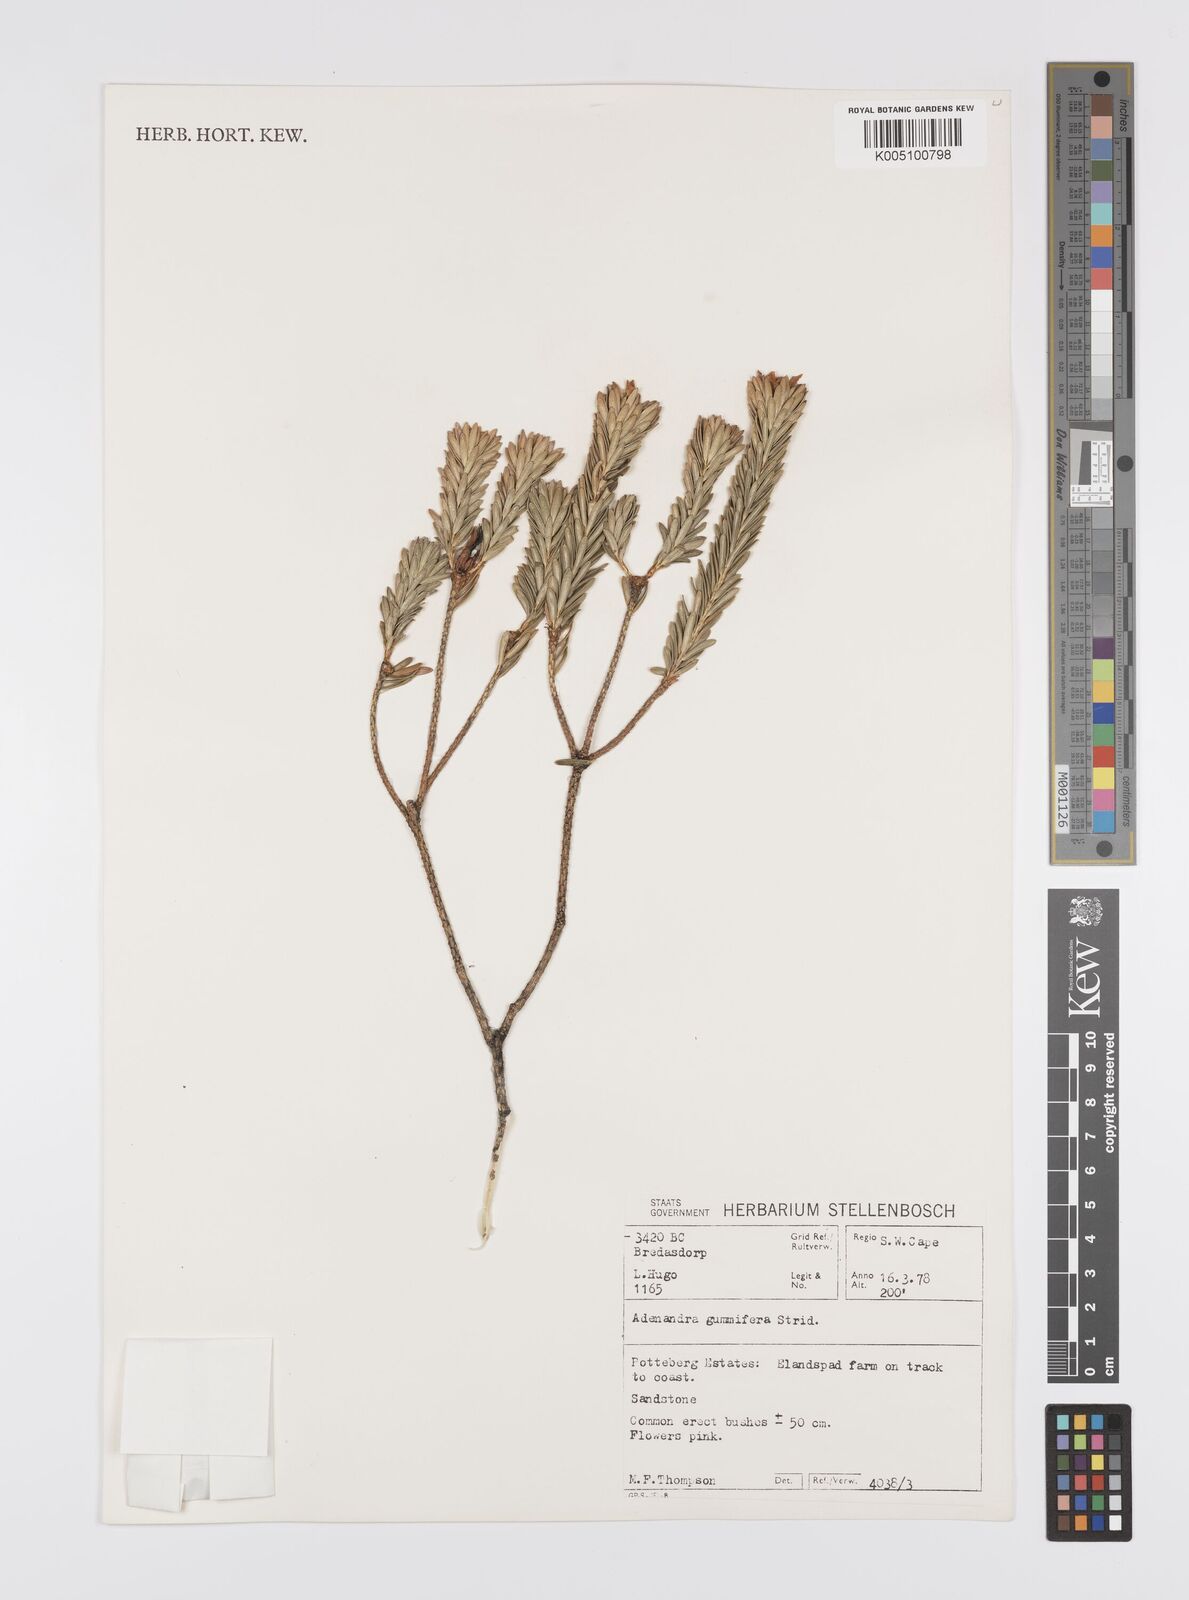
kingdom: Plantae
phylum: Tracheophyta
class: Magnoliopsida
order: Sapindales
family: Rutaceae
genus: Adenandra
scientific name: Adenandra gummifera
